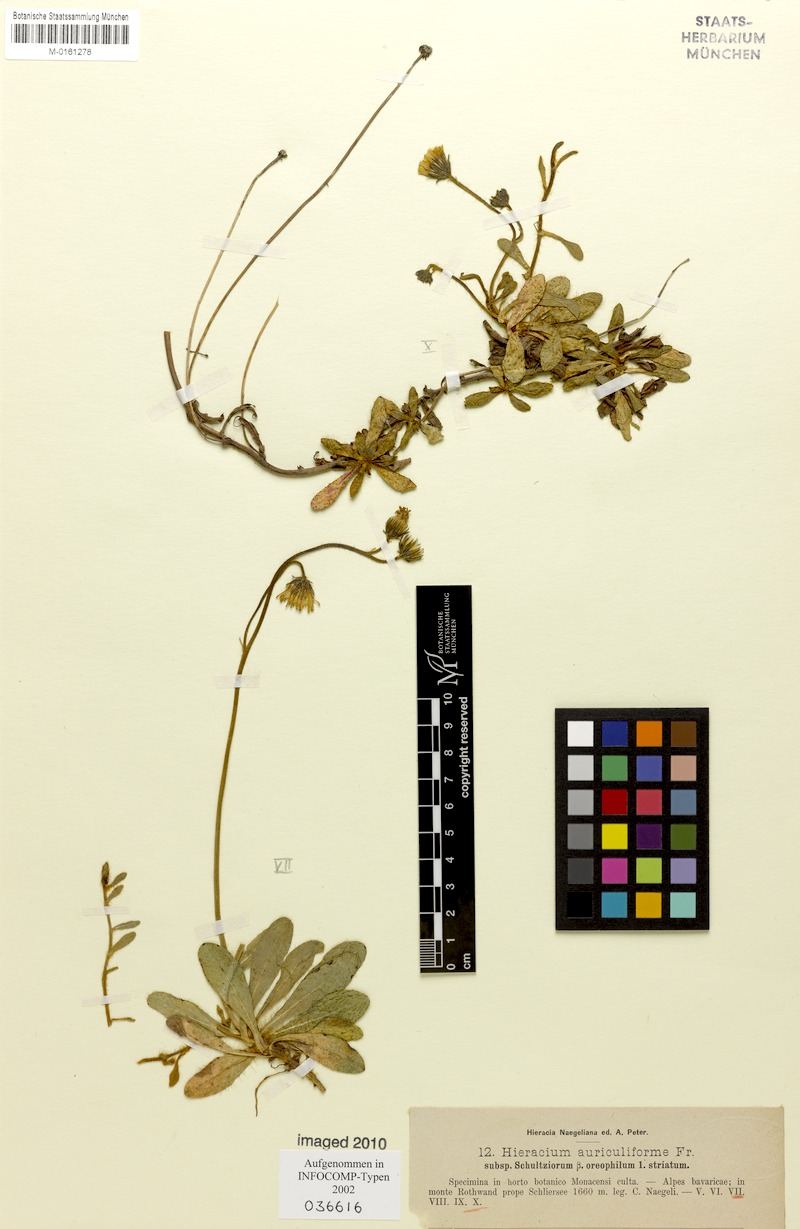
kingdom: Plantae
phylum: Tracheophyta
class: Magnoliopsida
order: Asterales
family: Asteraceae
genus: Pilosella
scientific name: Pilosella schultesii
